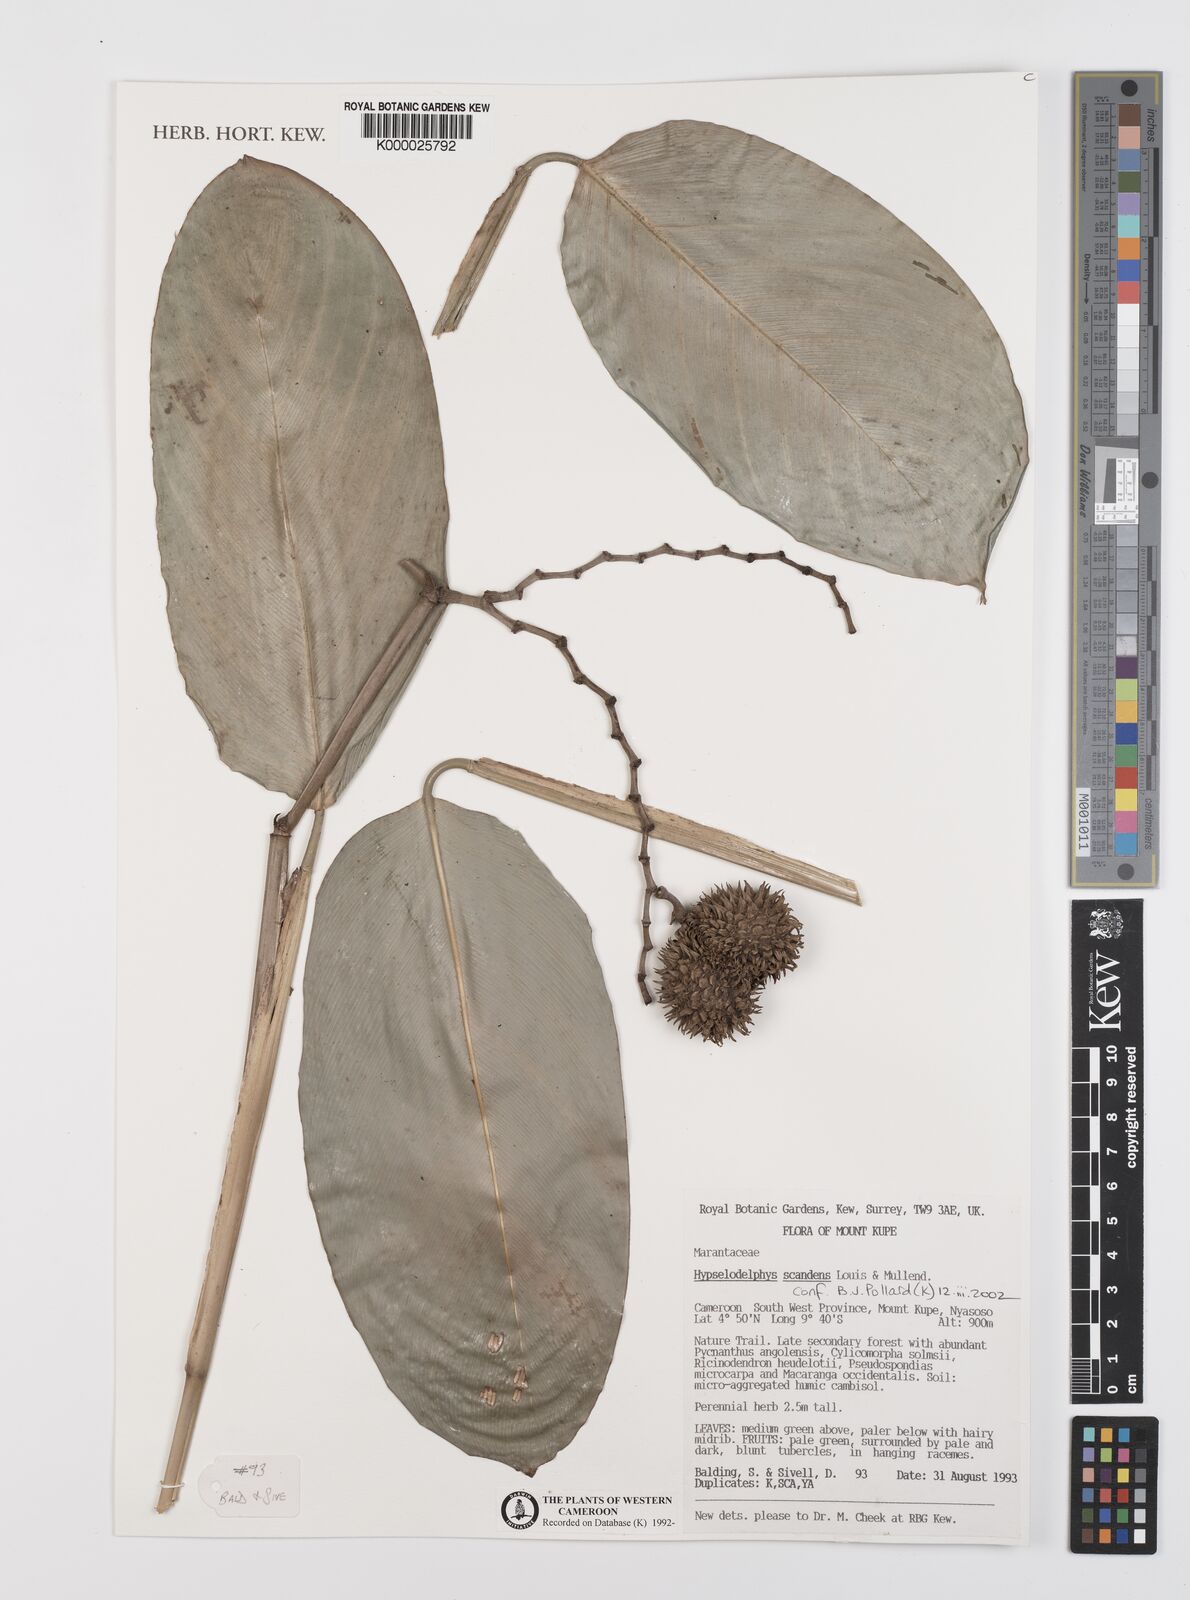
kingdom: Plantae
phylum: Tracheophyta
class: Liliopsida
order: Zingiberales
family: Marantaceae
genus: Hypselodelphys
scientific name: Hypselodelphys scandens
